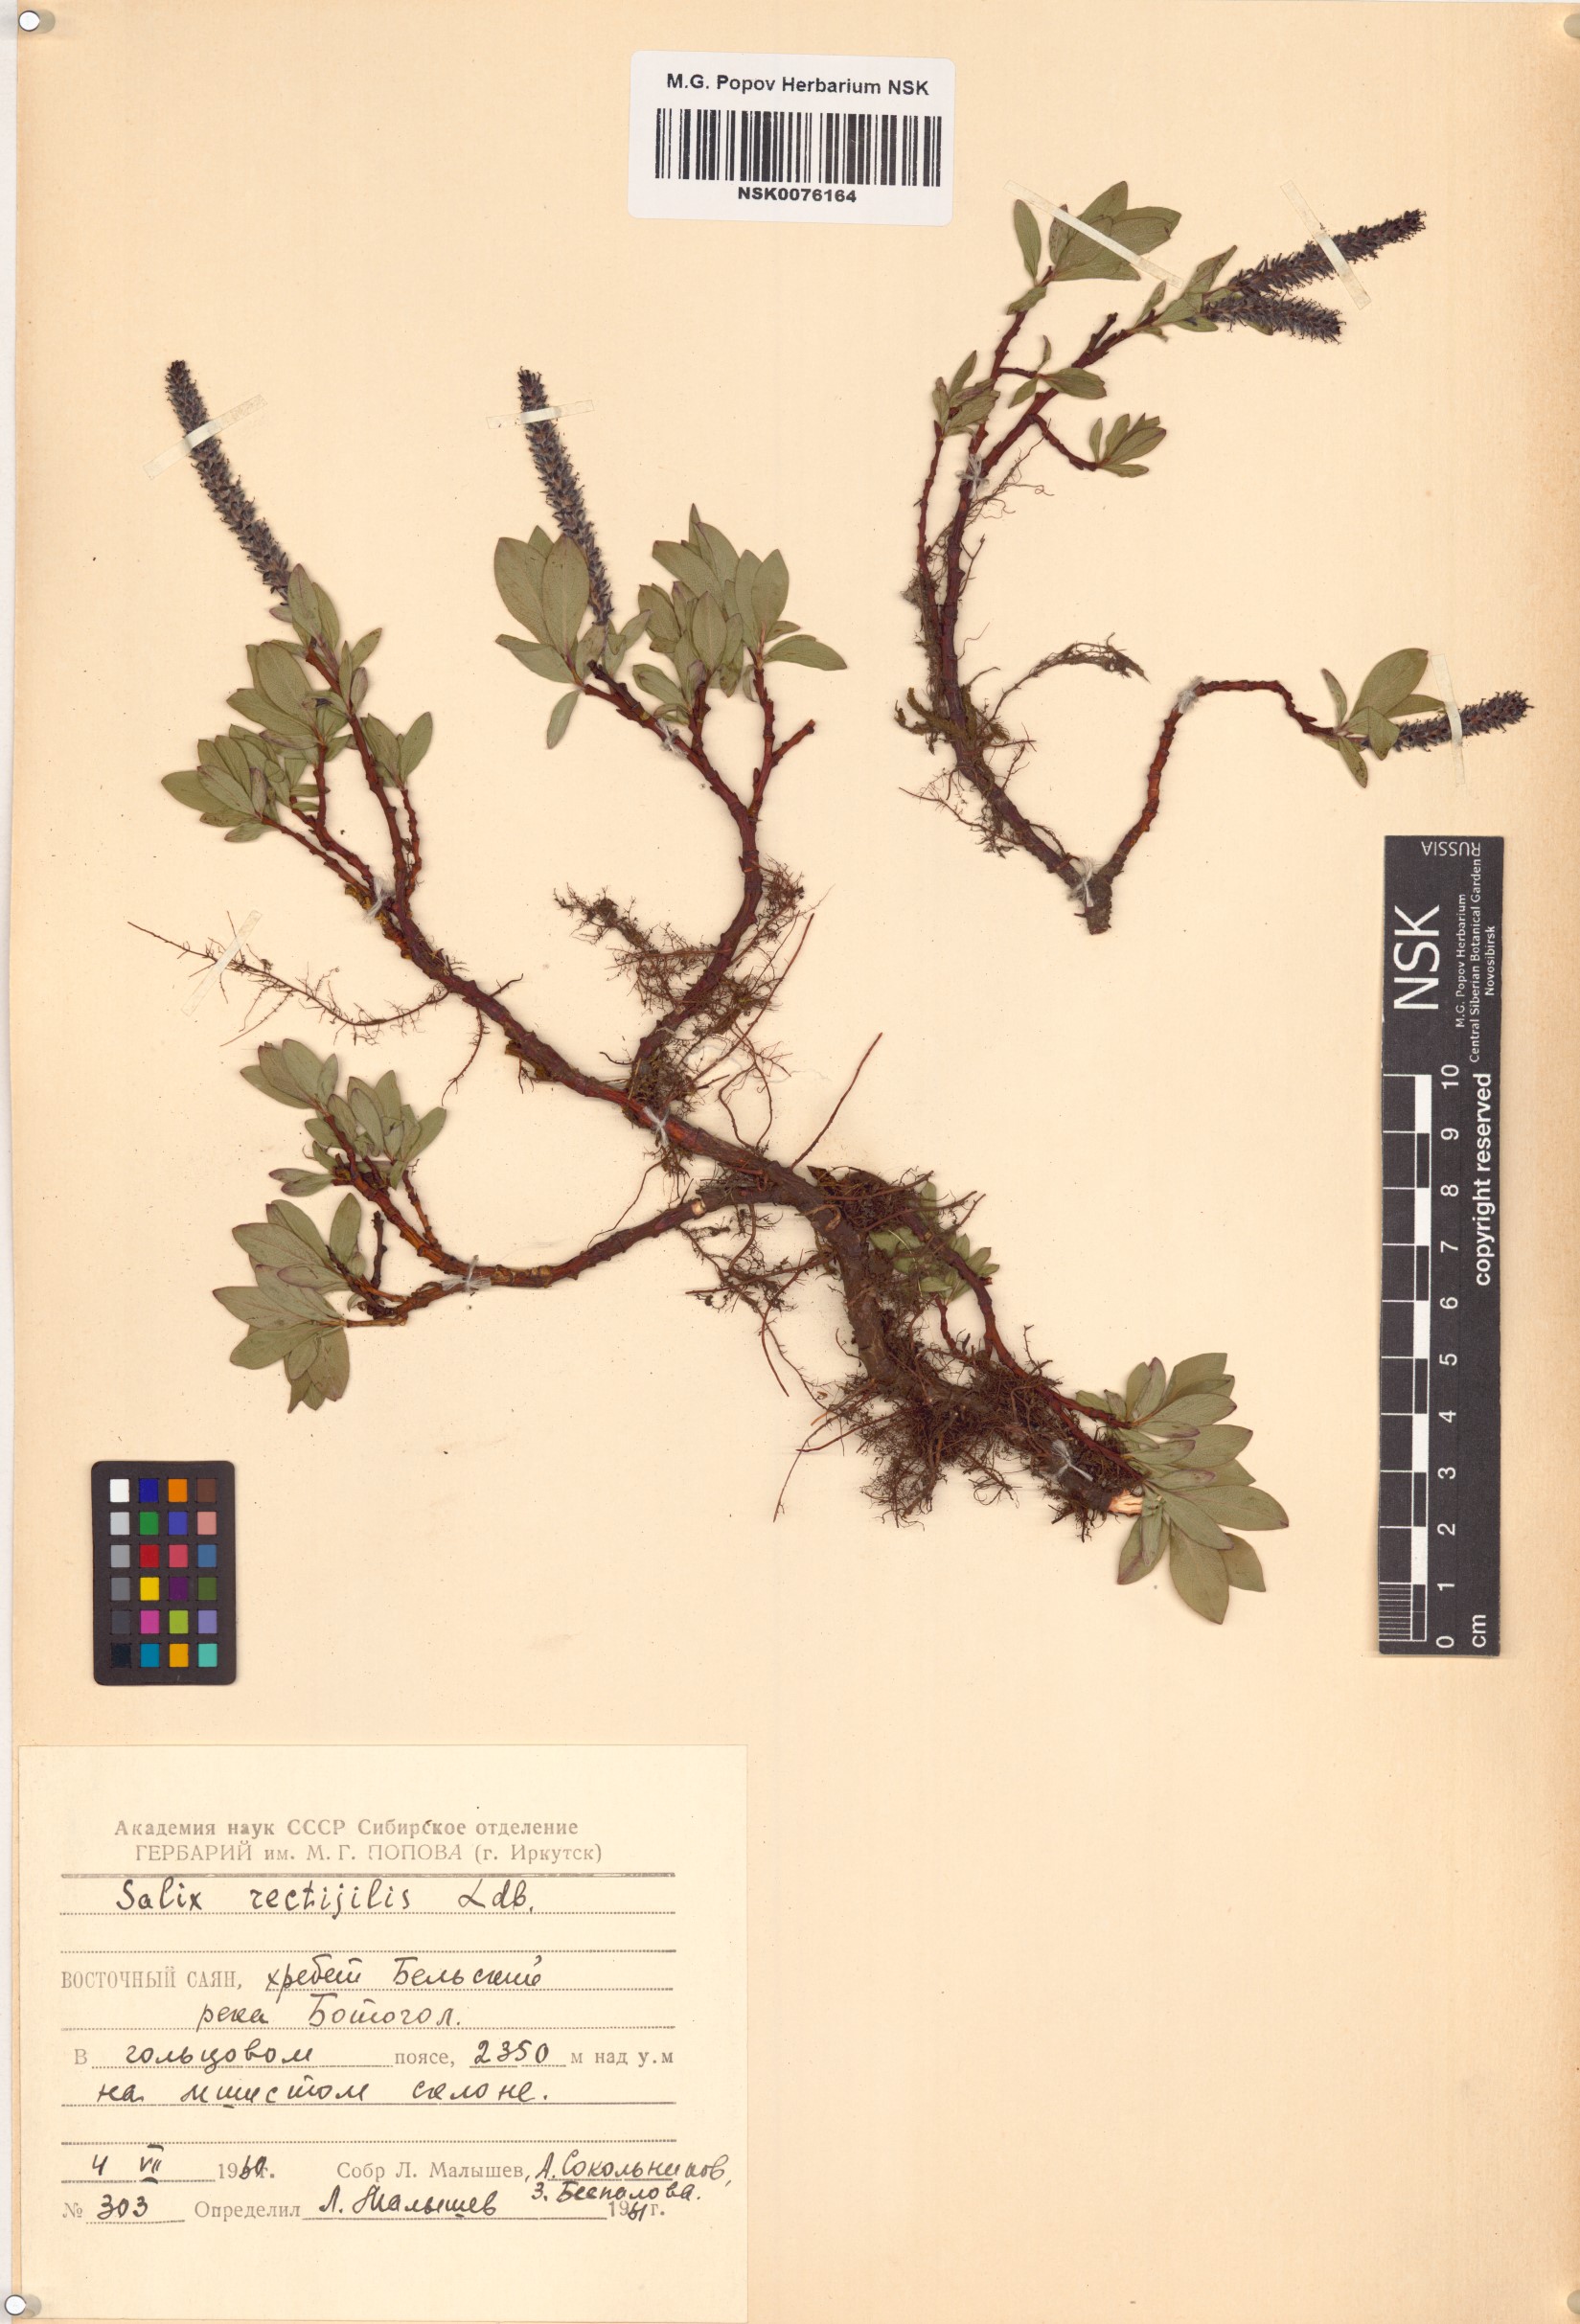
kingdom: Plantae
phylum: Tracheophyta
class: Magnoliopsida
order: Malpighiales
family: Salicaceae
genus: Salix
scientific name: Salix rectijulis
